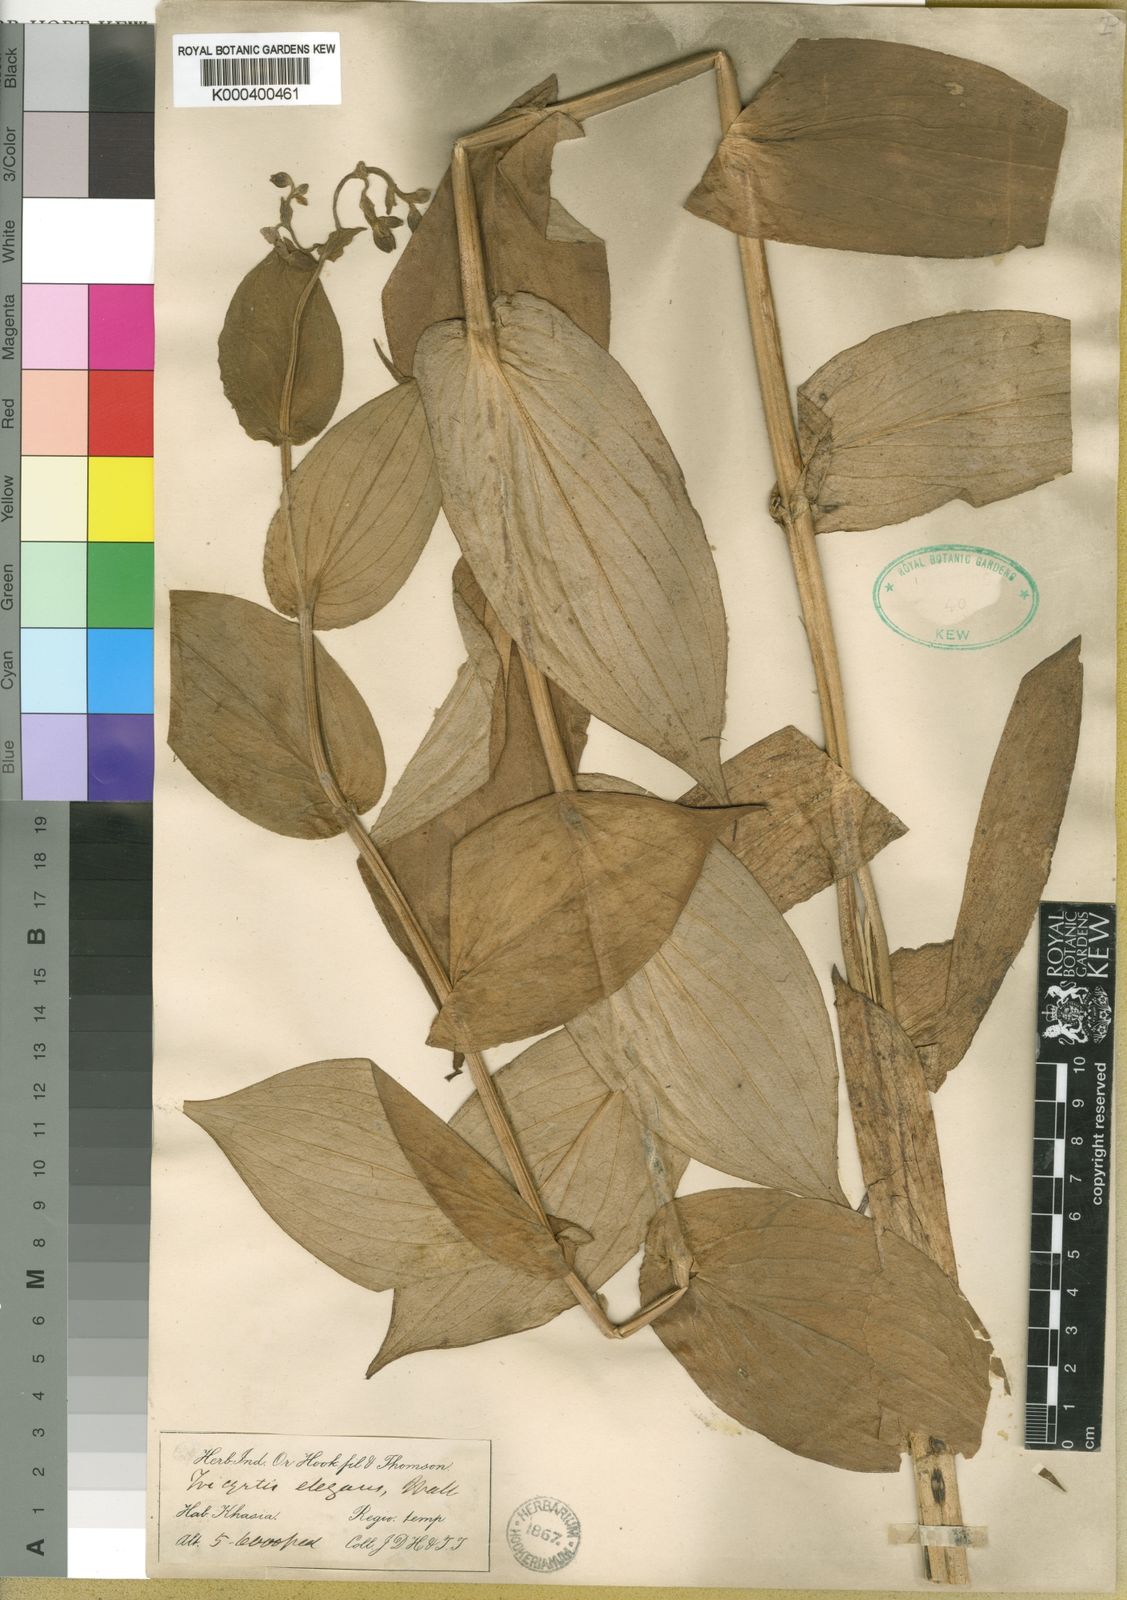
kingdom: Plantae
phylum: Tracheophyta
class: Liliopsida
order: Liliales
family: Liliaceae
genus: Tricyrtis
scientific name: Tricyrtis maculata
